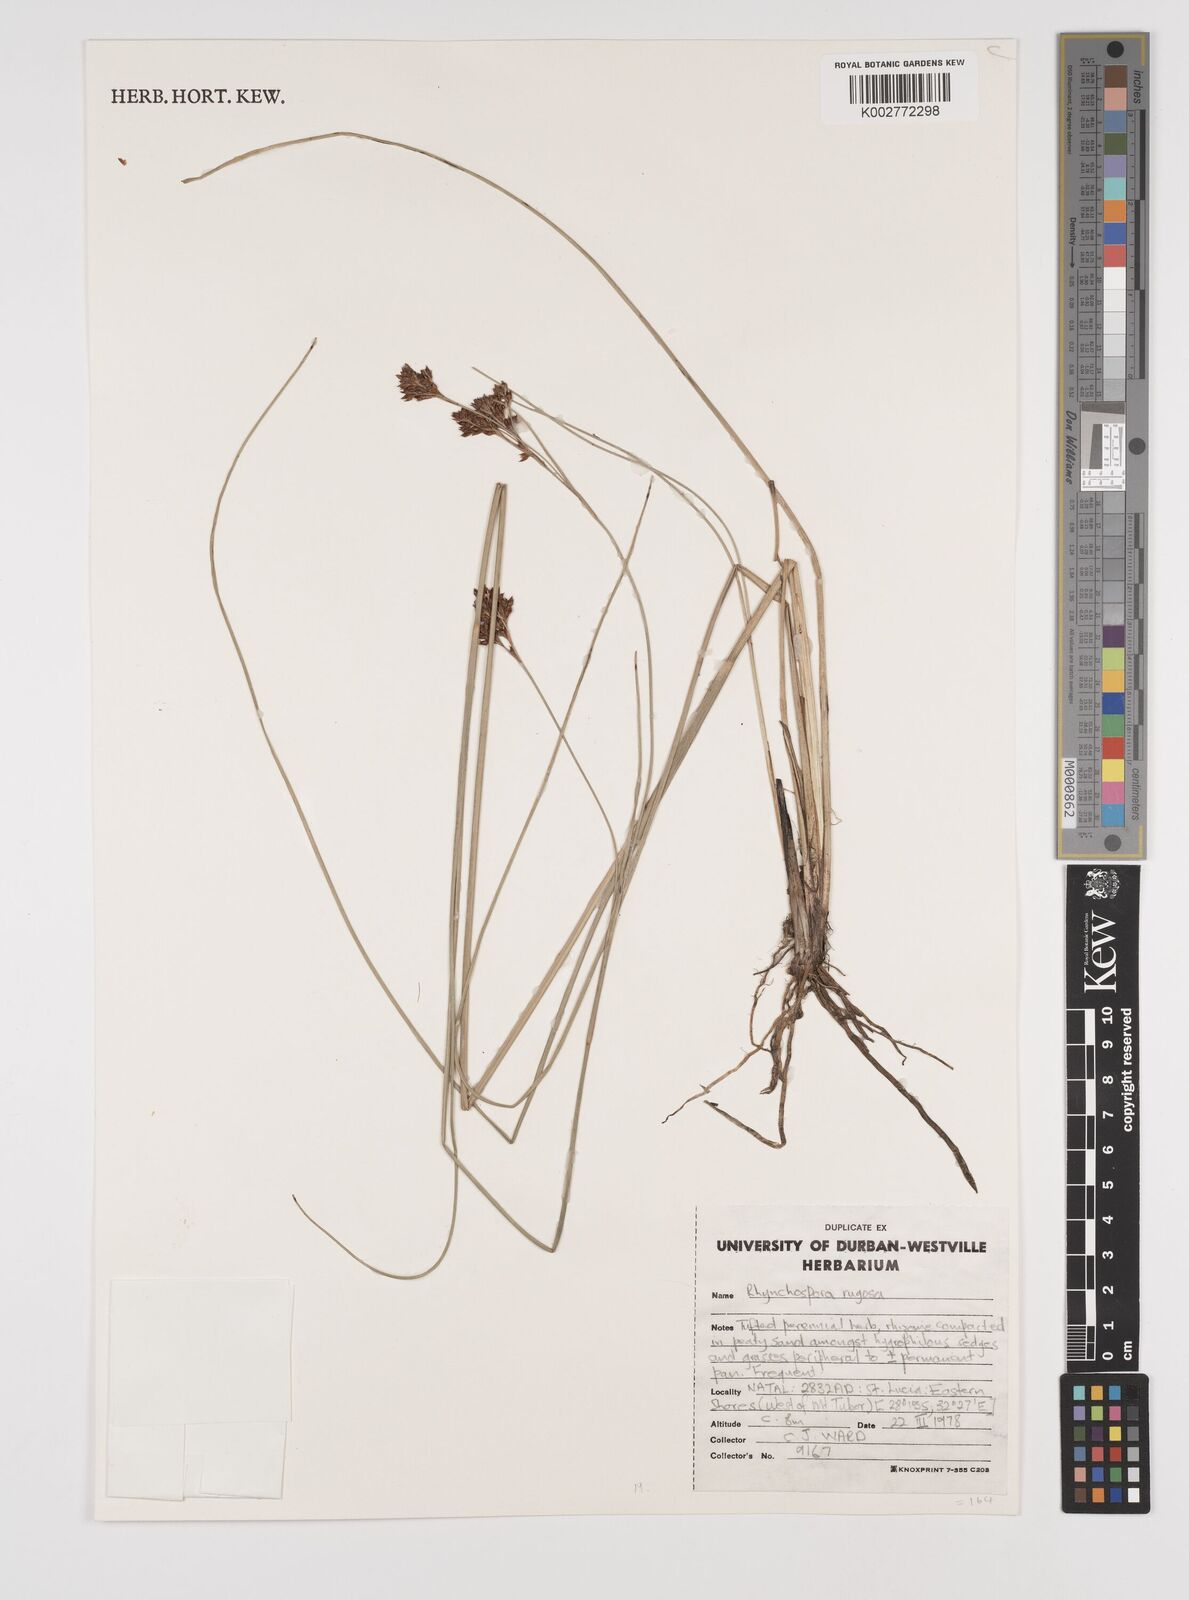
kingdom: Plantae
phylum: Tracheophyta
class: Liliopsida
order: Poales
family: Cyperaceae
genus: Rhynchospora
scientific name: Rhynchospora rugosa
